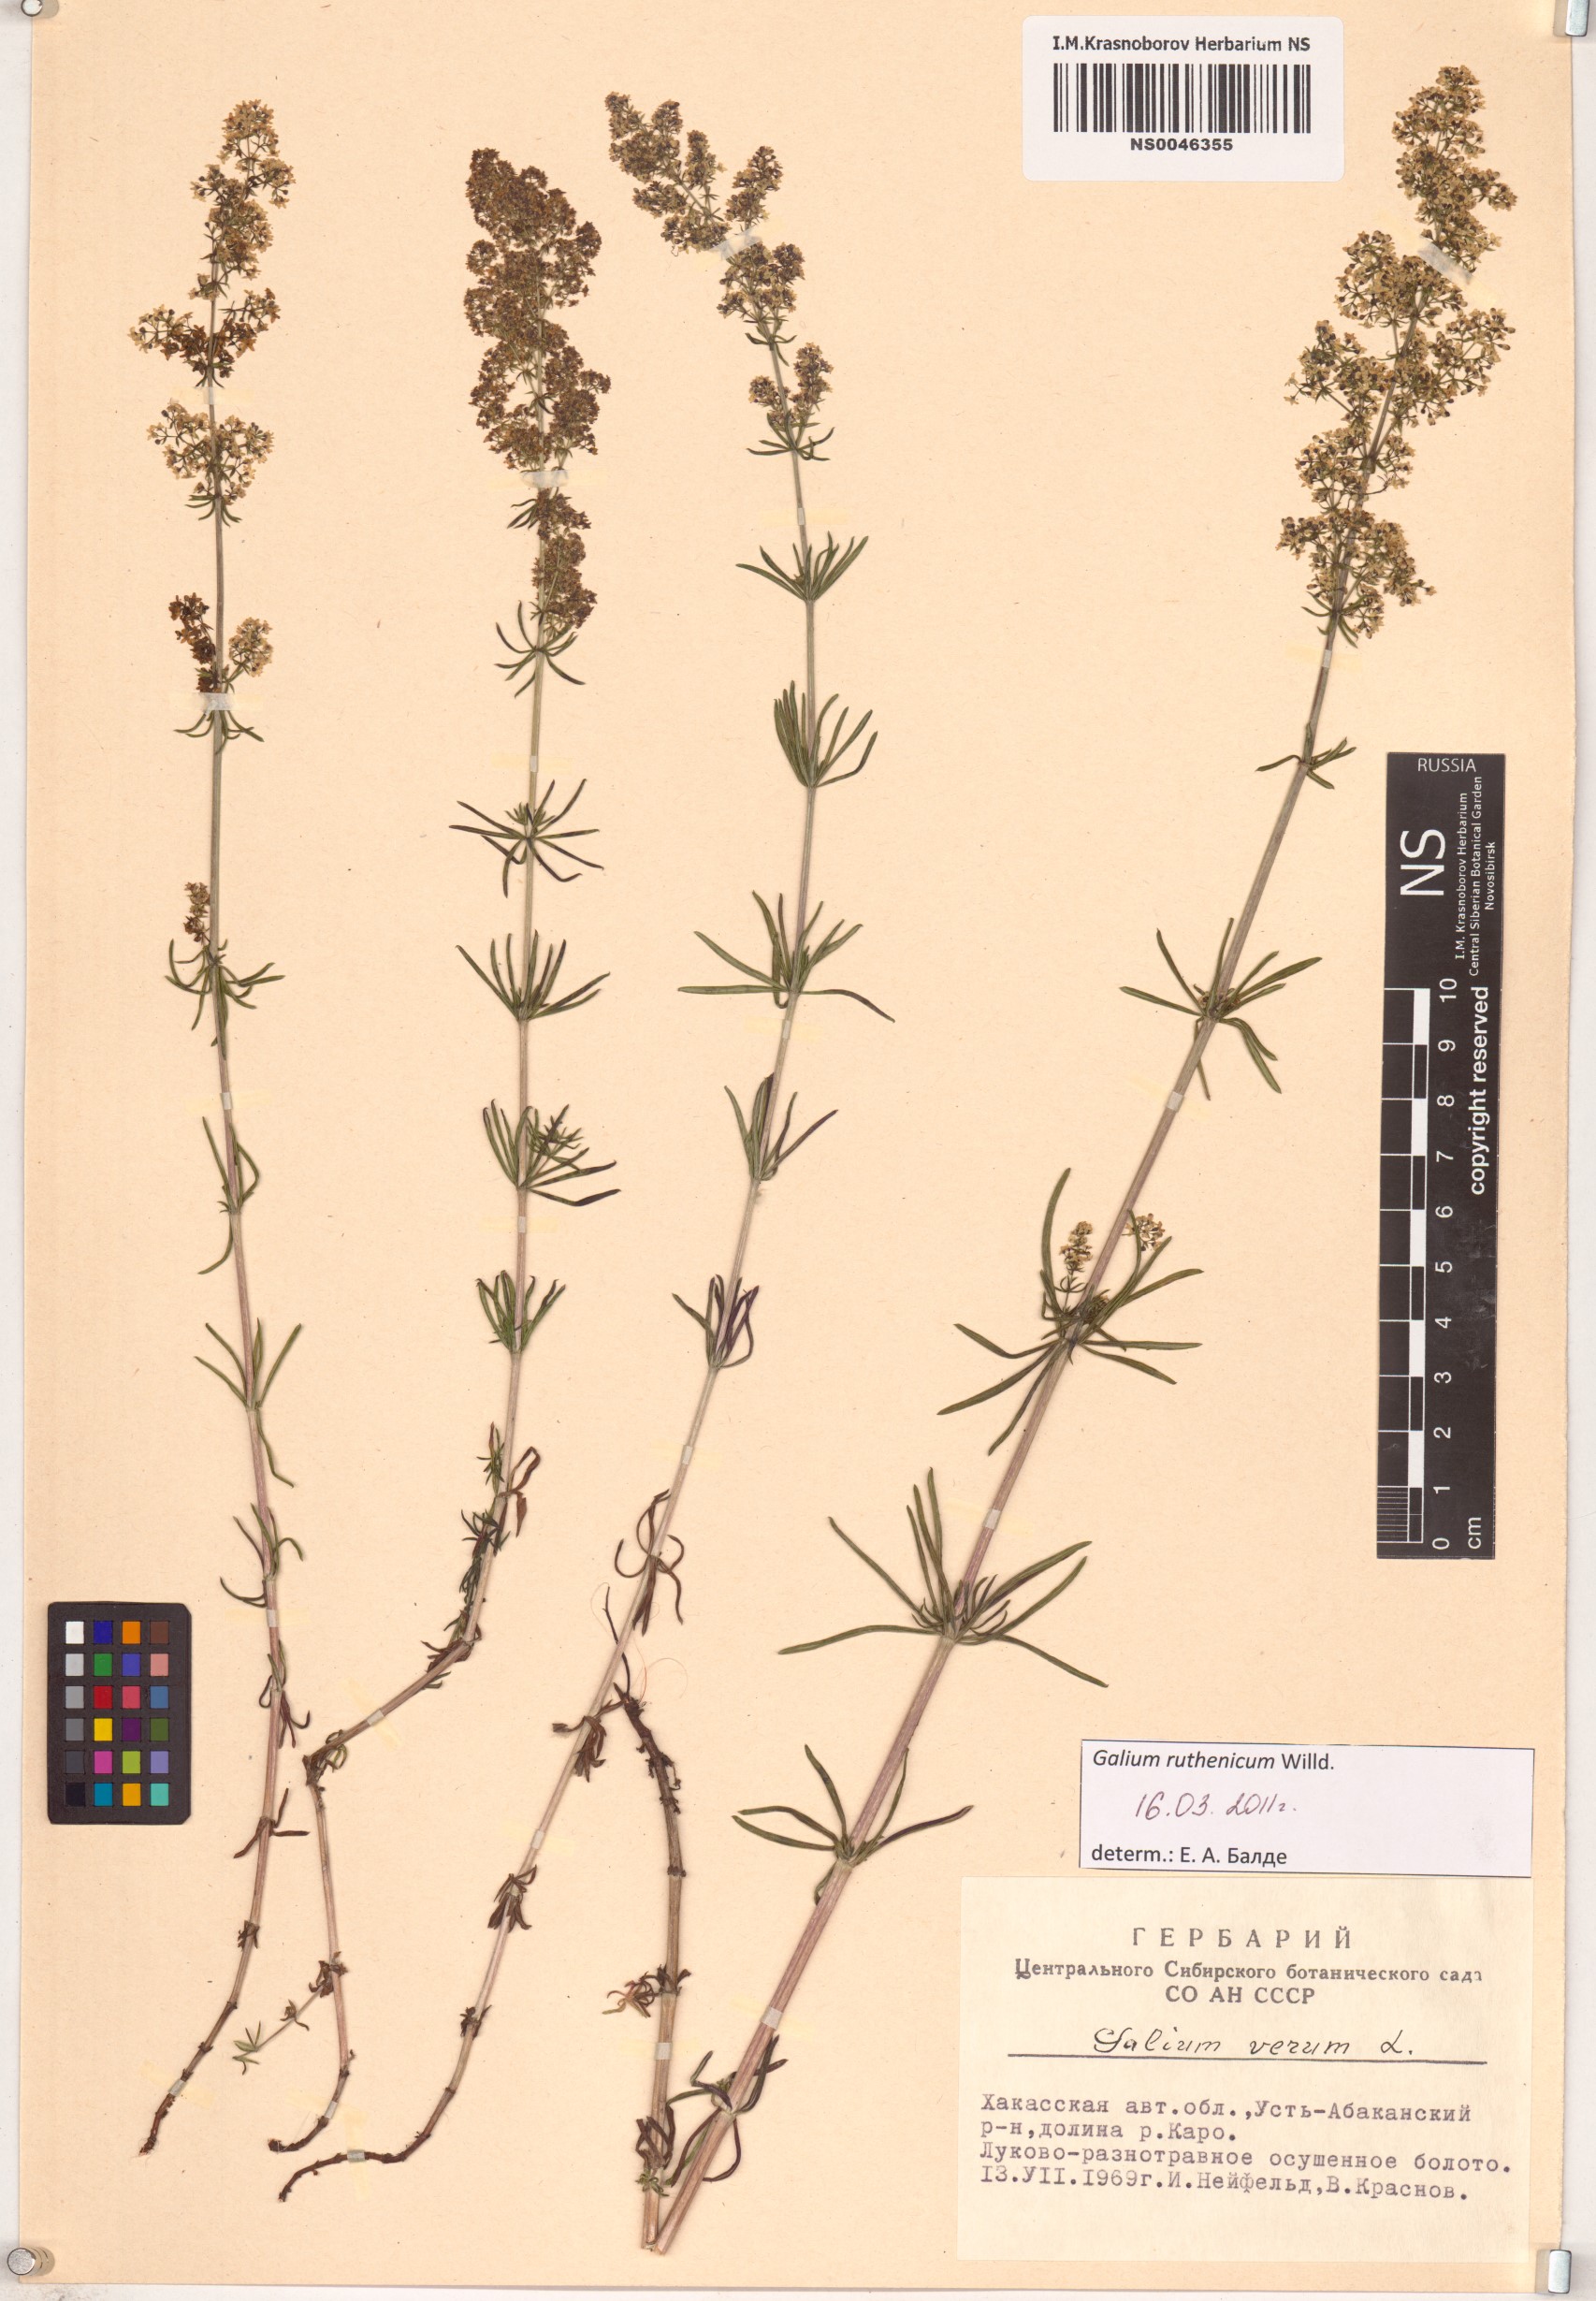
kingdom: Plantae
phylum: Tracheophyta
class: Magnoliopsida
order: Gentianales
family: Rubiaceae
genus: Galium
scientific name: Galium verum
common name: Lady's bedstraw
